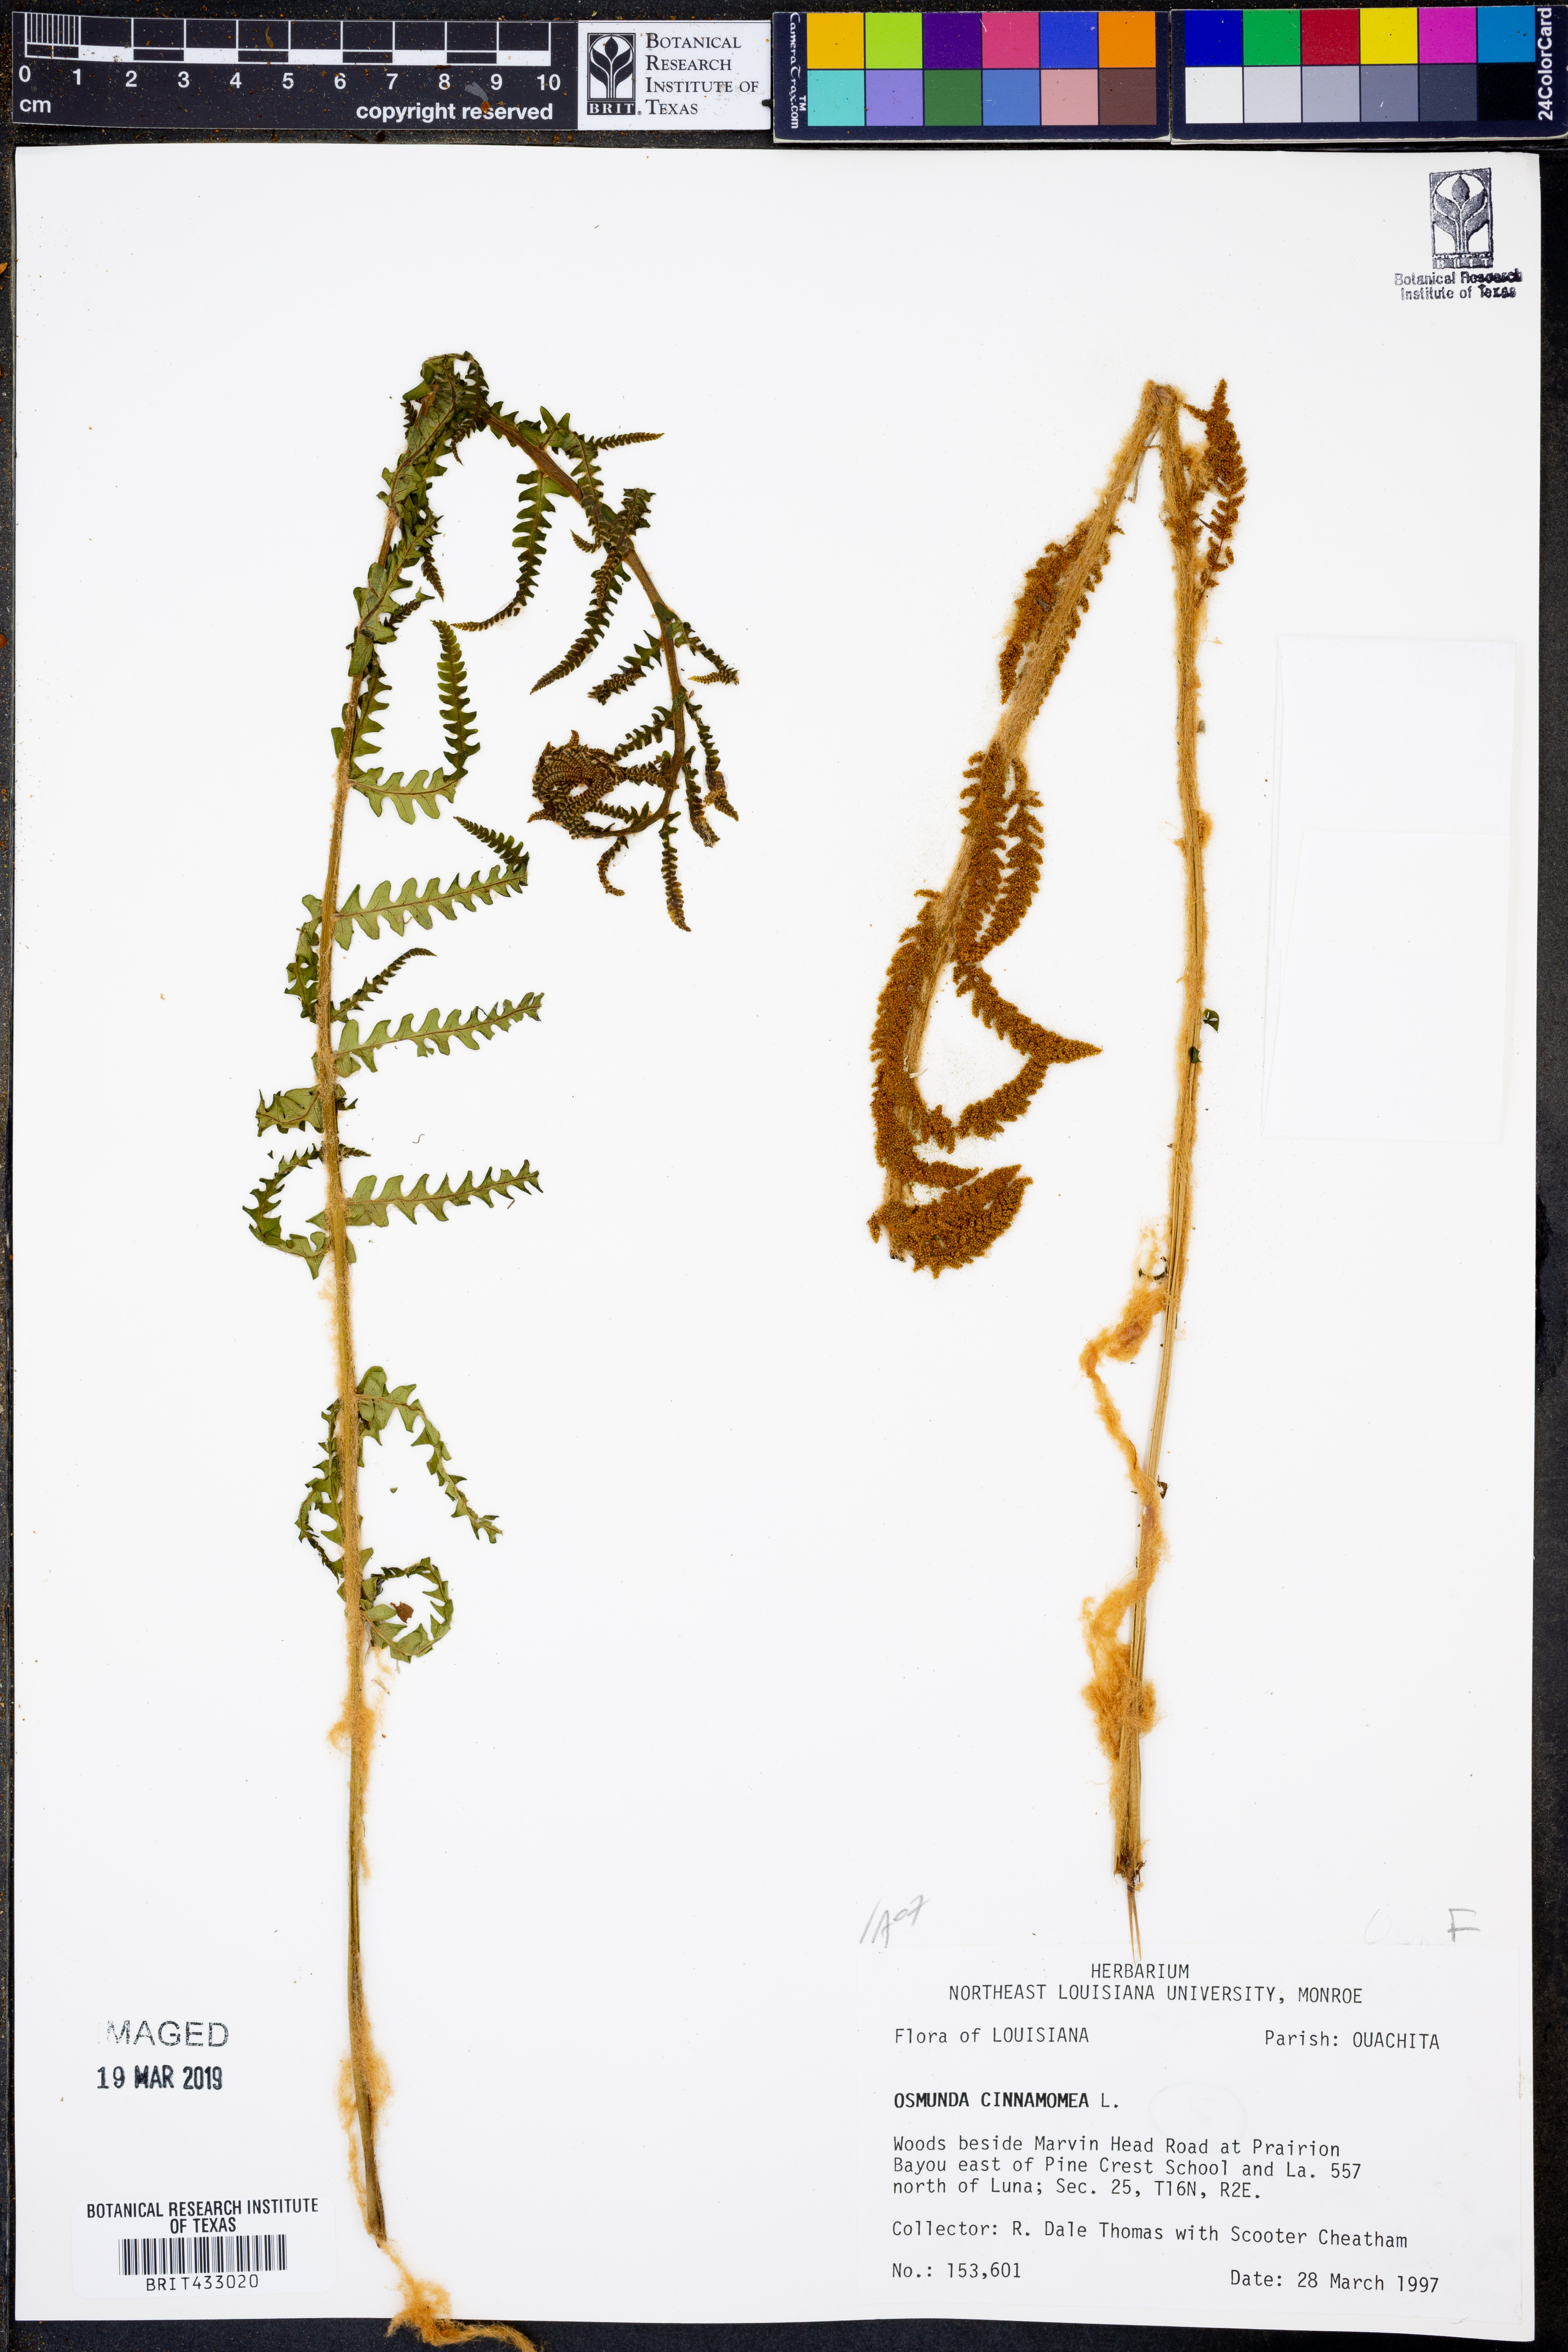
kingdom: Plantae
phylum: Tracheophyta
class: Polypodiopsida
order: Osmundales
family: Osmundaceae
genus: Osmundastrum
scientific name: Osmundastrum cinnamomeum
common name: Cinnamon fern
